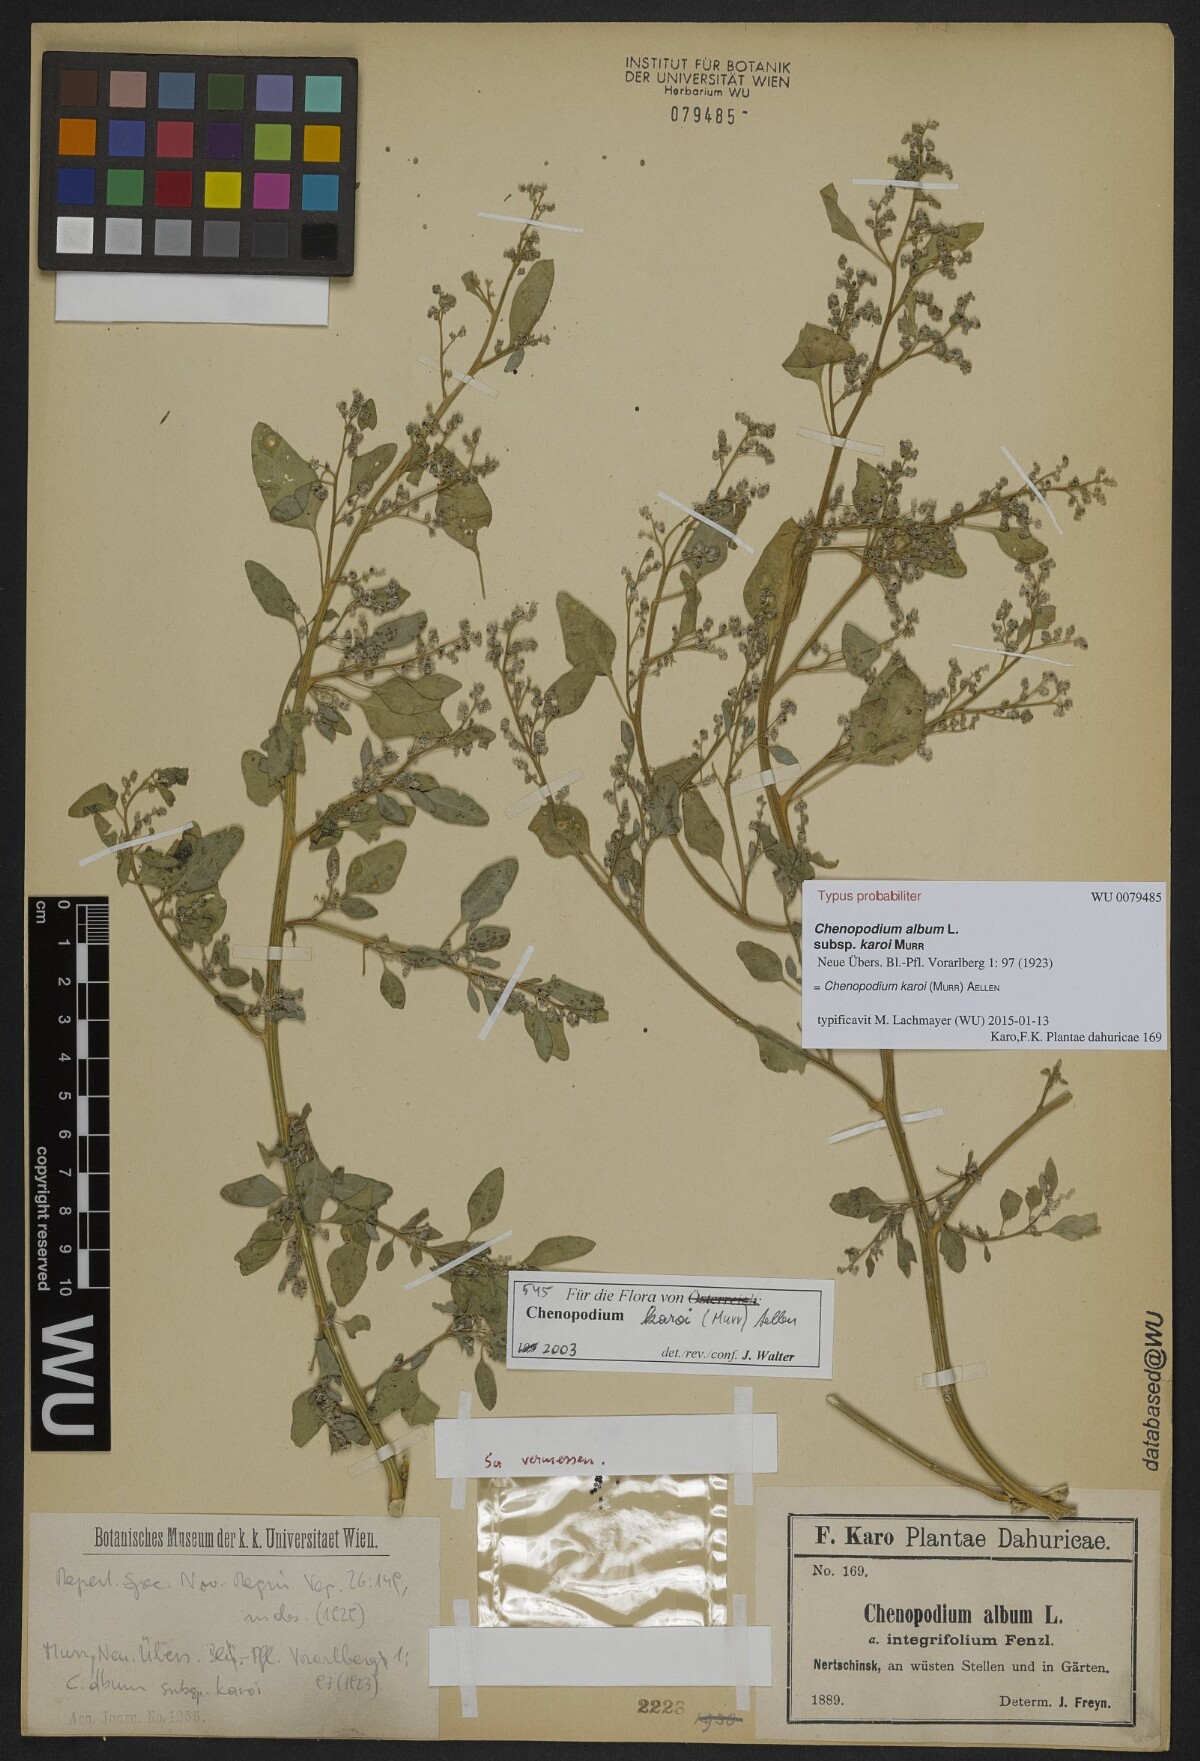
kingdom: Plantae
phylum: Tracheophyta
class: Magnoliopsida
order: Caryophyllales
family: Amaranthaceae
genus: Chenopodium
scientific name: Chenopodium karoi
